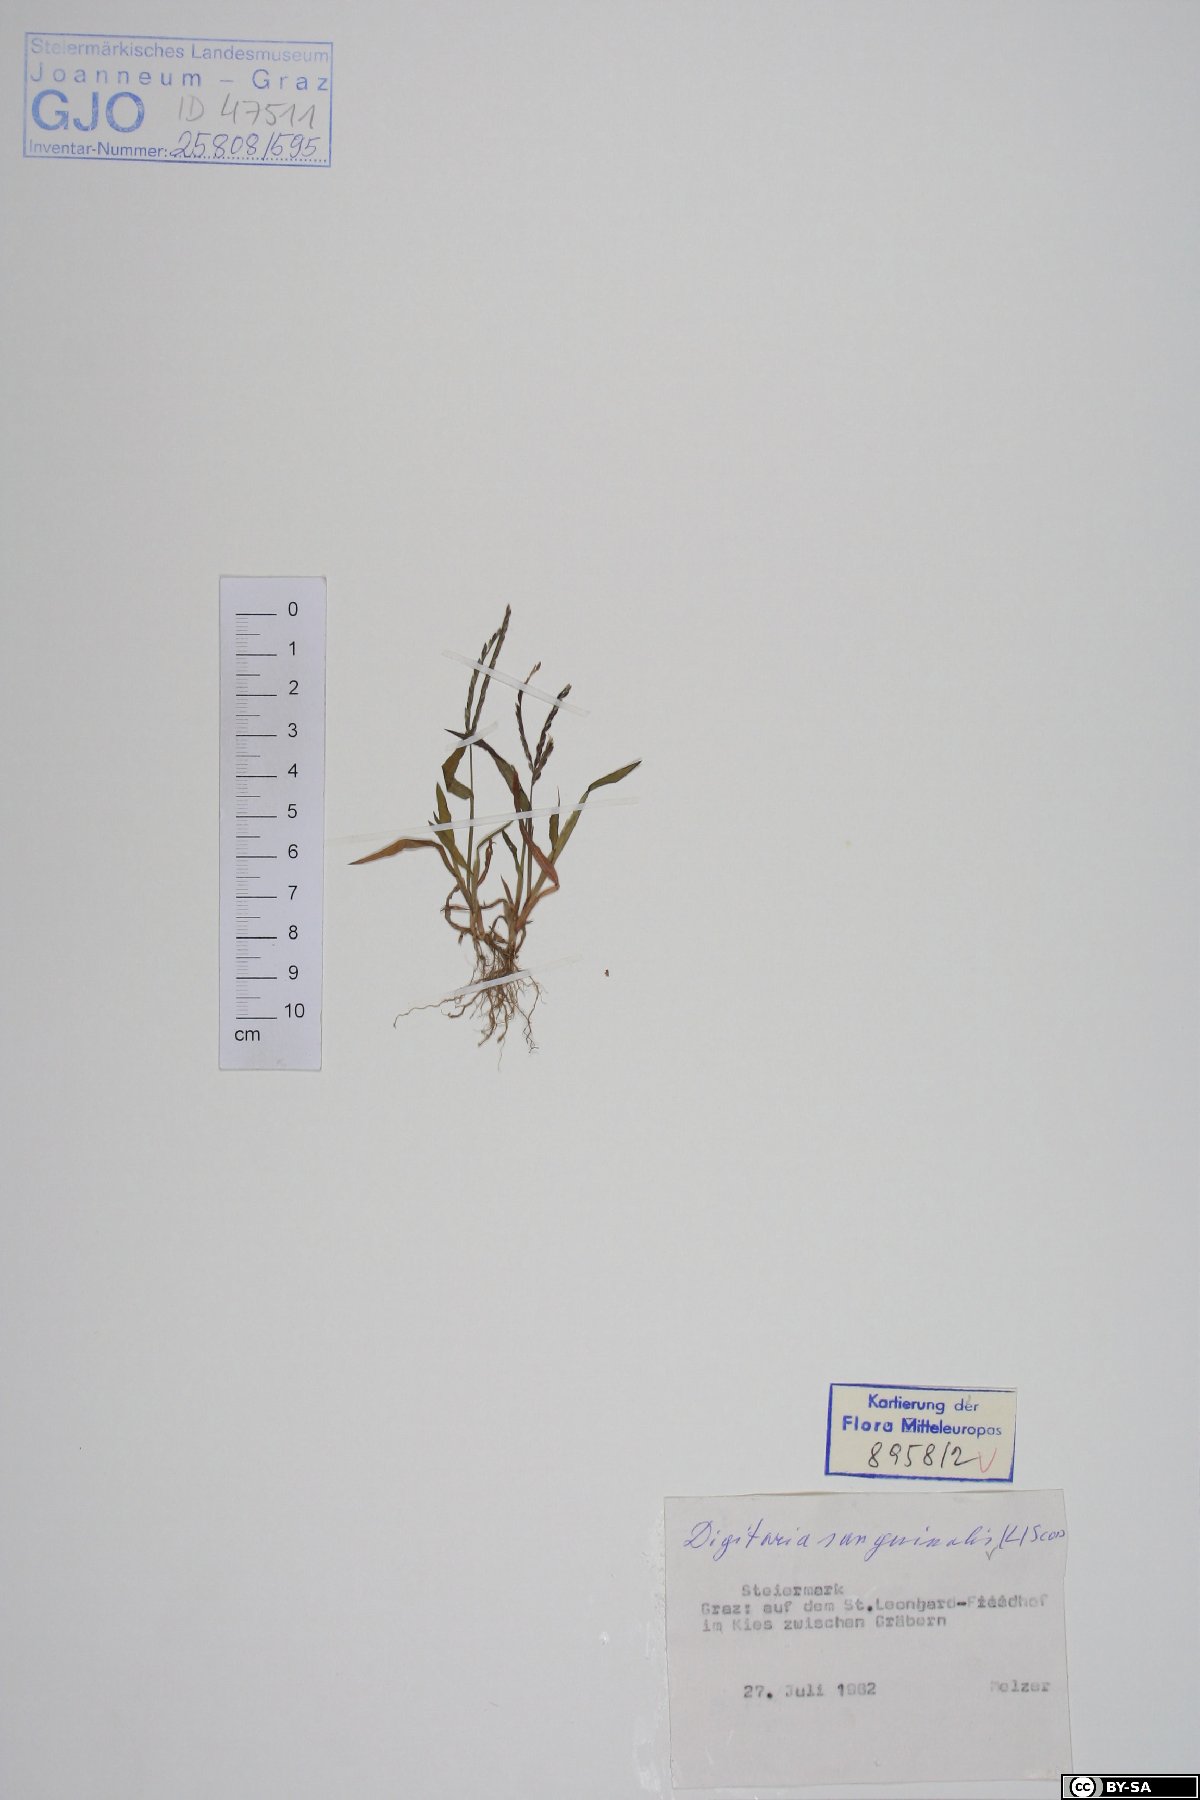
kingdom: Plantae
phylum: Tracheophyta
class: Liliopsida
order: Poales
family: Poaceae
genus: Digitaria
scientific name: Digitaria sanguinalis
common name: Hairy crabgrass
